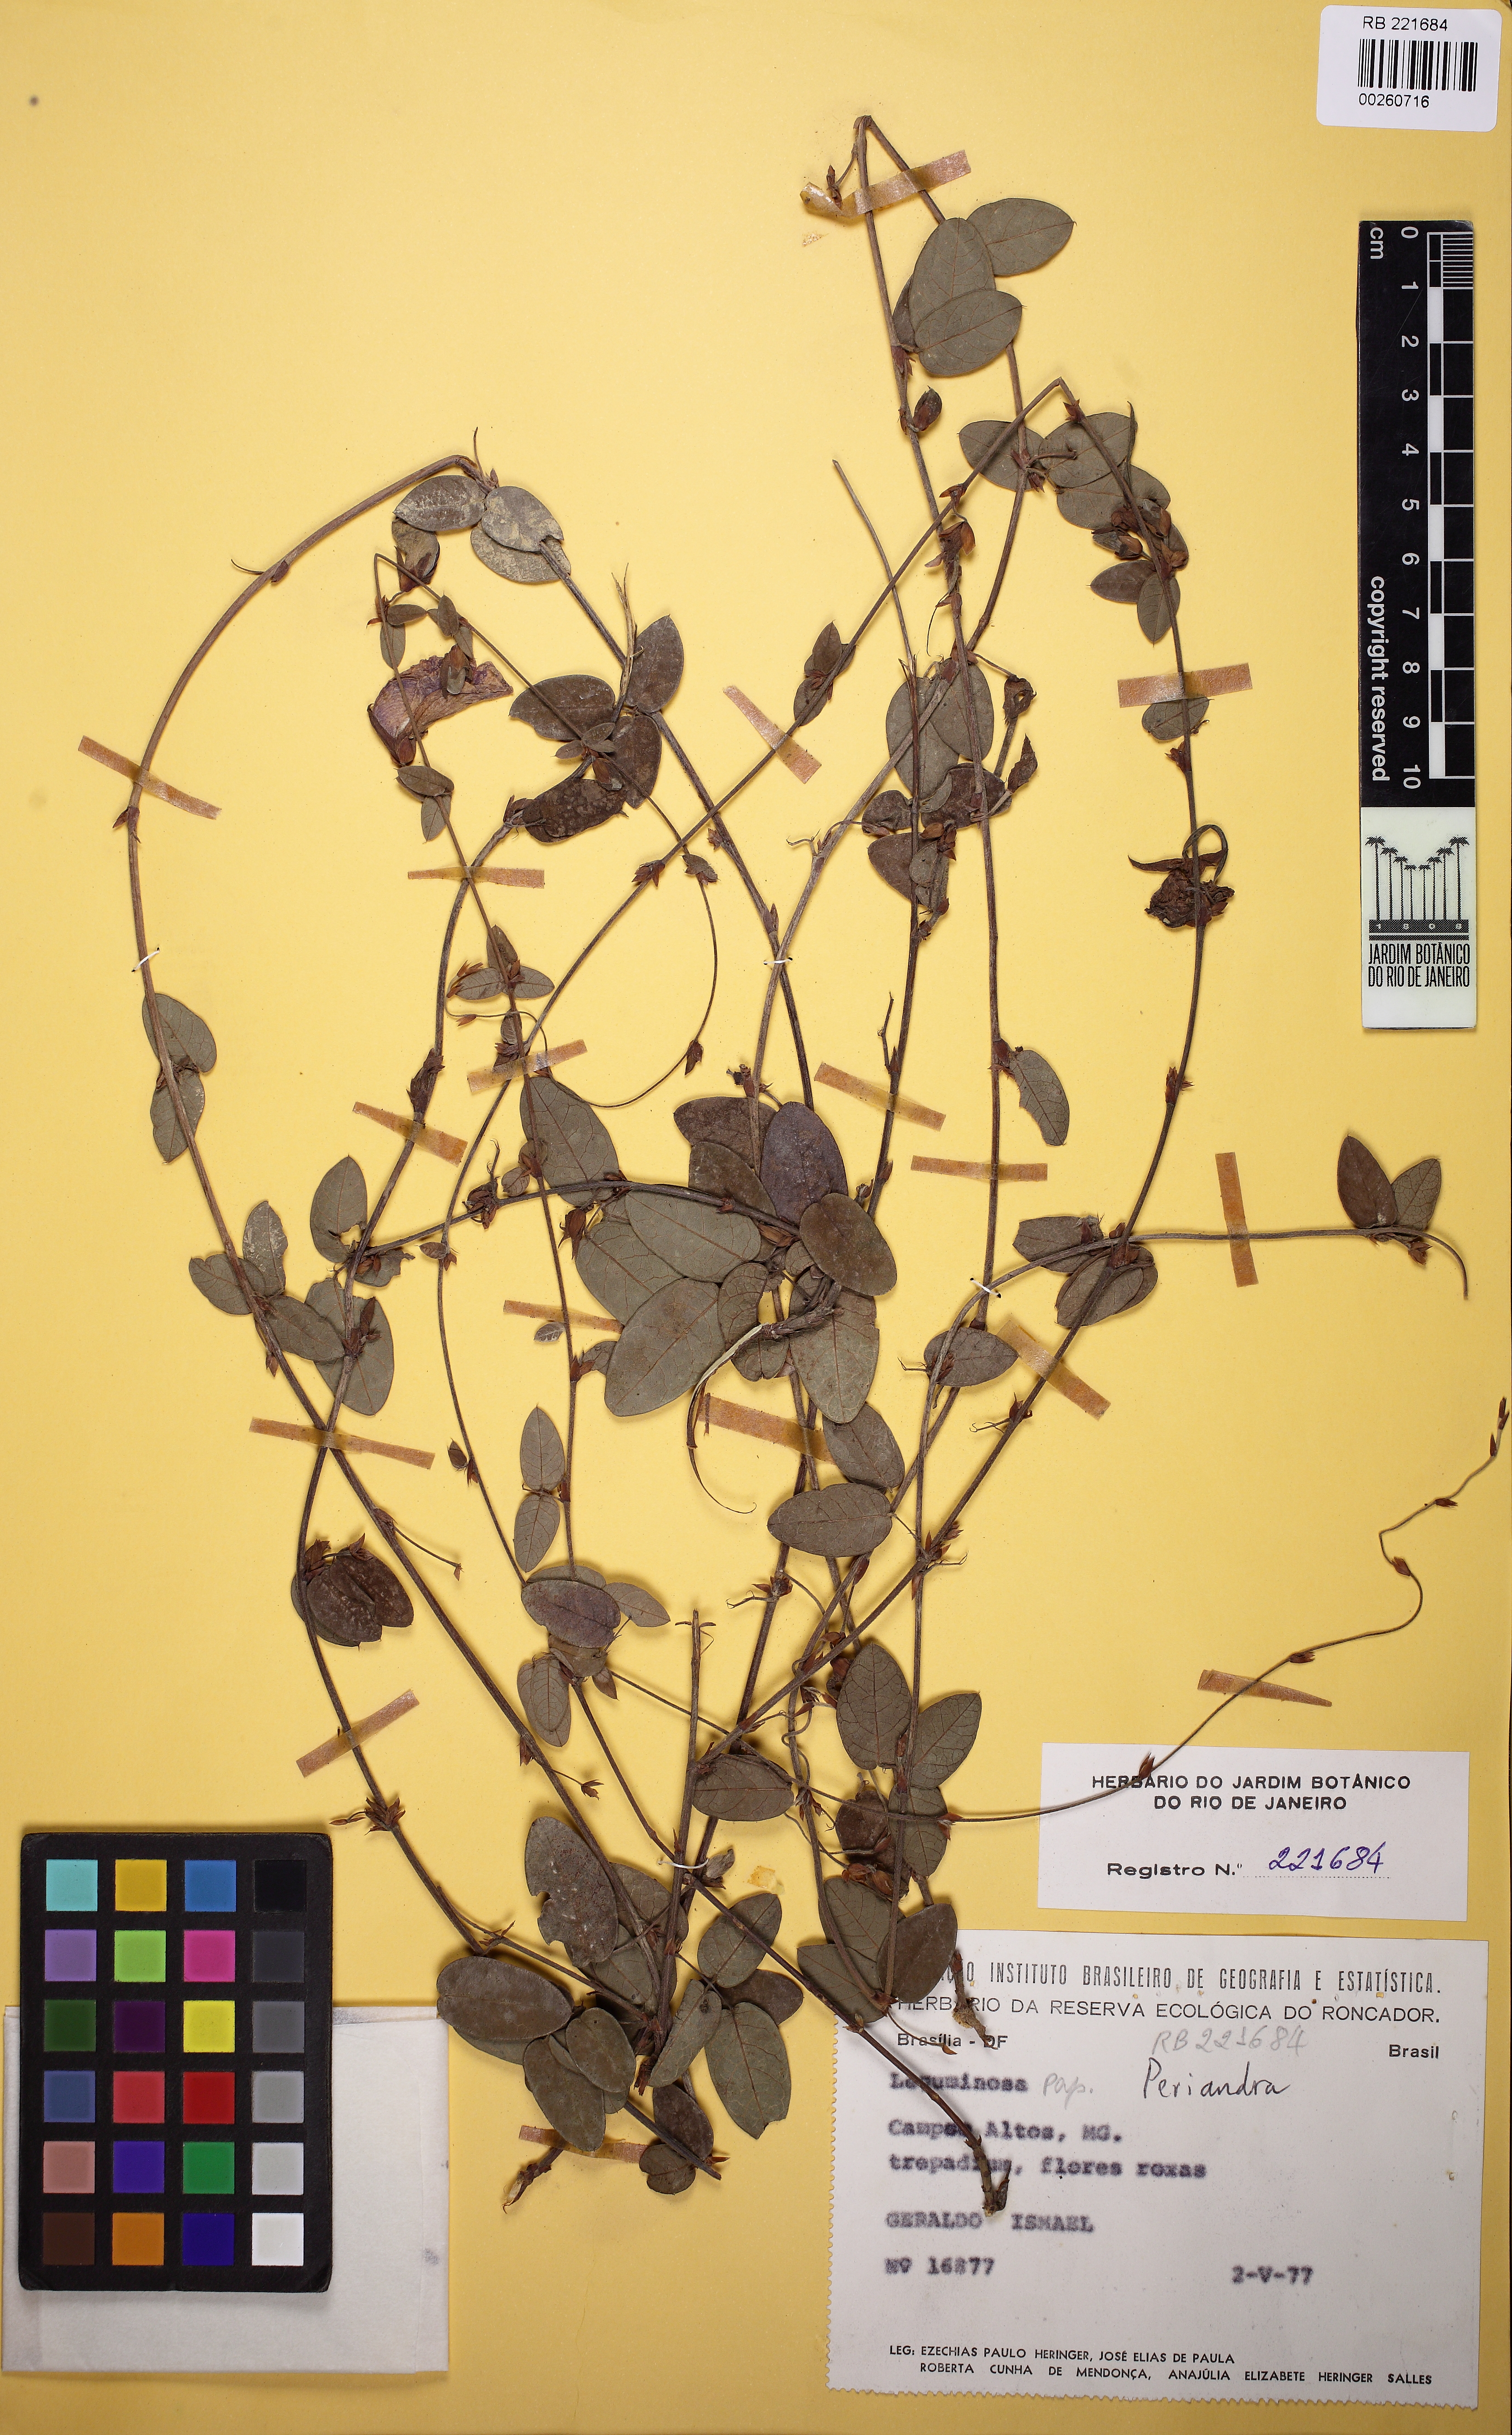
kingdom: Plantae
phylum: Tracheophyta
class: Magnoliopsida
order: Fabales
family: Fabaceae
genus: Periandra
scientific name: Periandra
